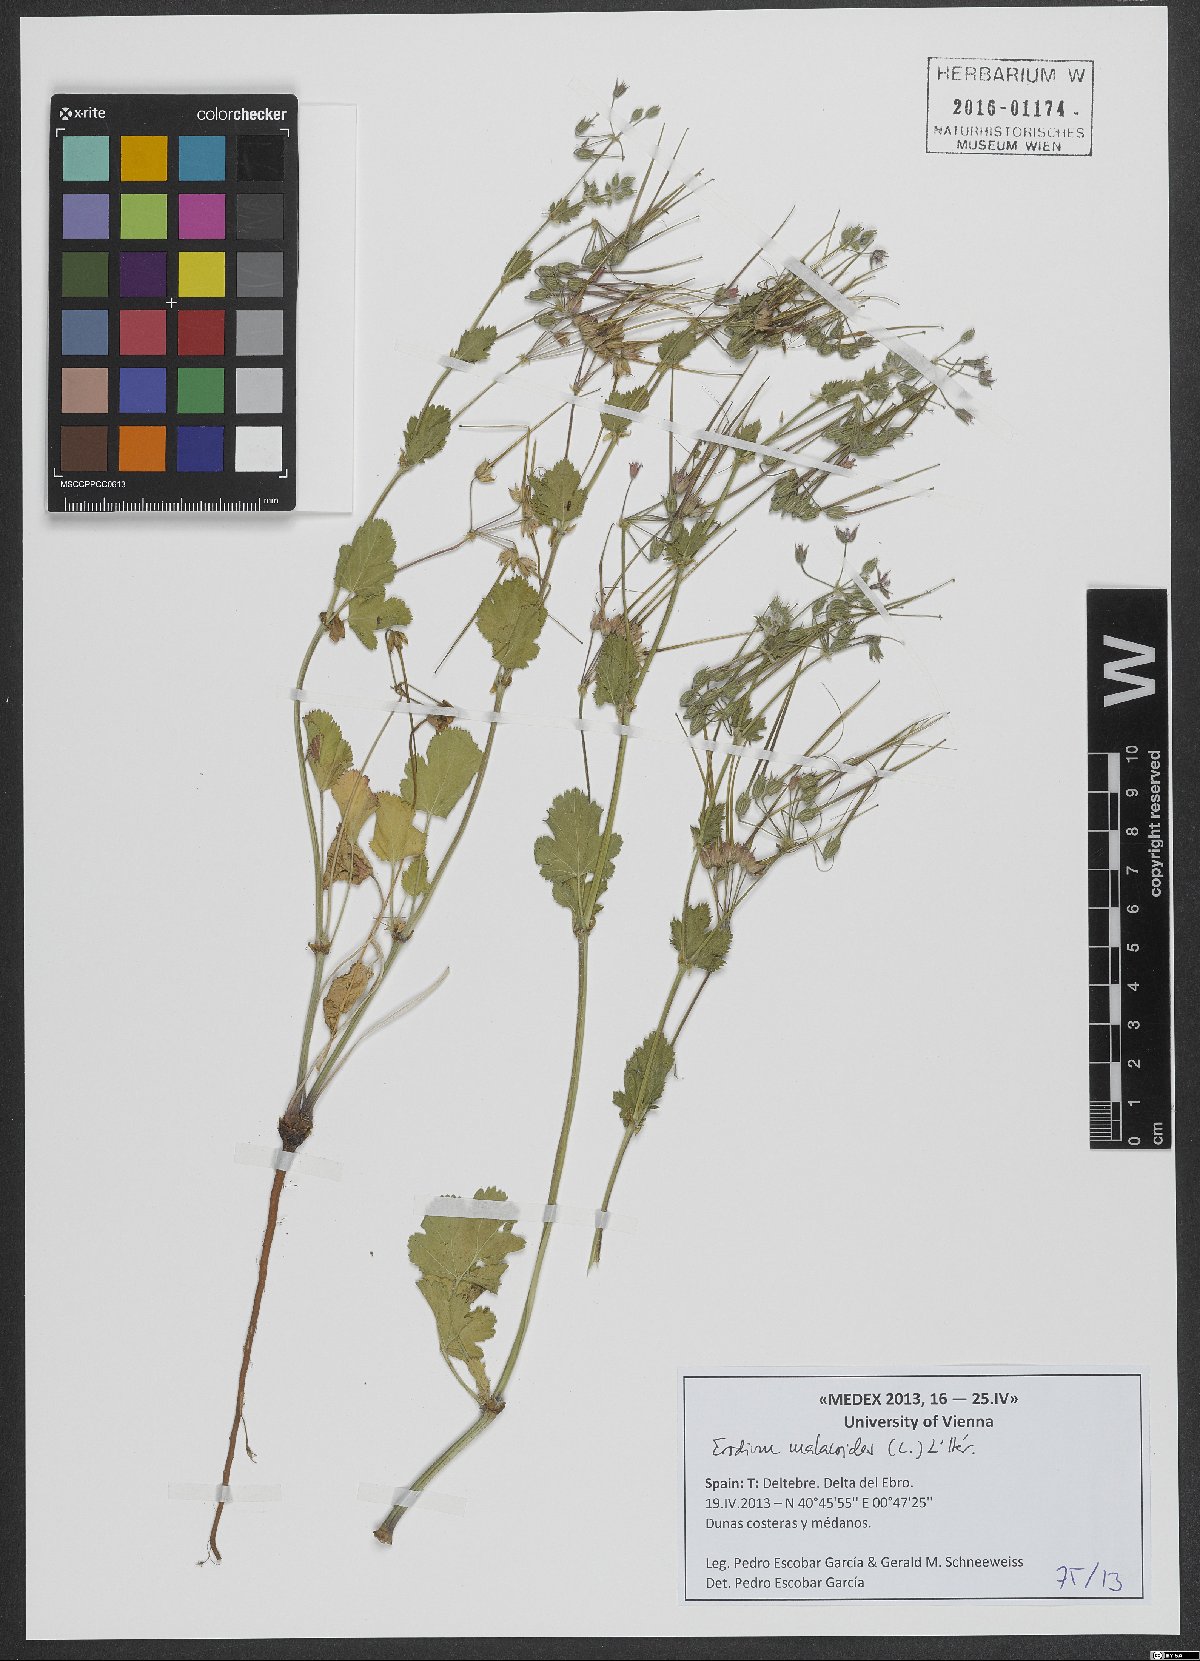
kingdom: Plantae
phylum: Tracheophyta
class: Magnoliopsida
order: Geraniales
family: Geraniaceae
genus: Erodium
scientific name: Erodium malacoides
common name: Soft stork's-bill
